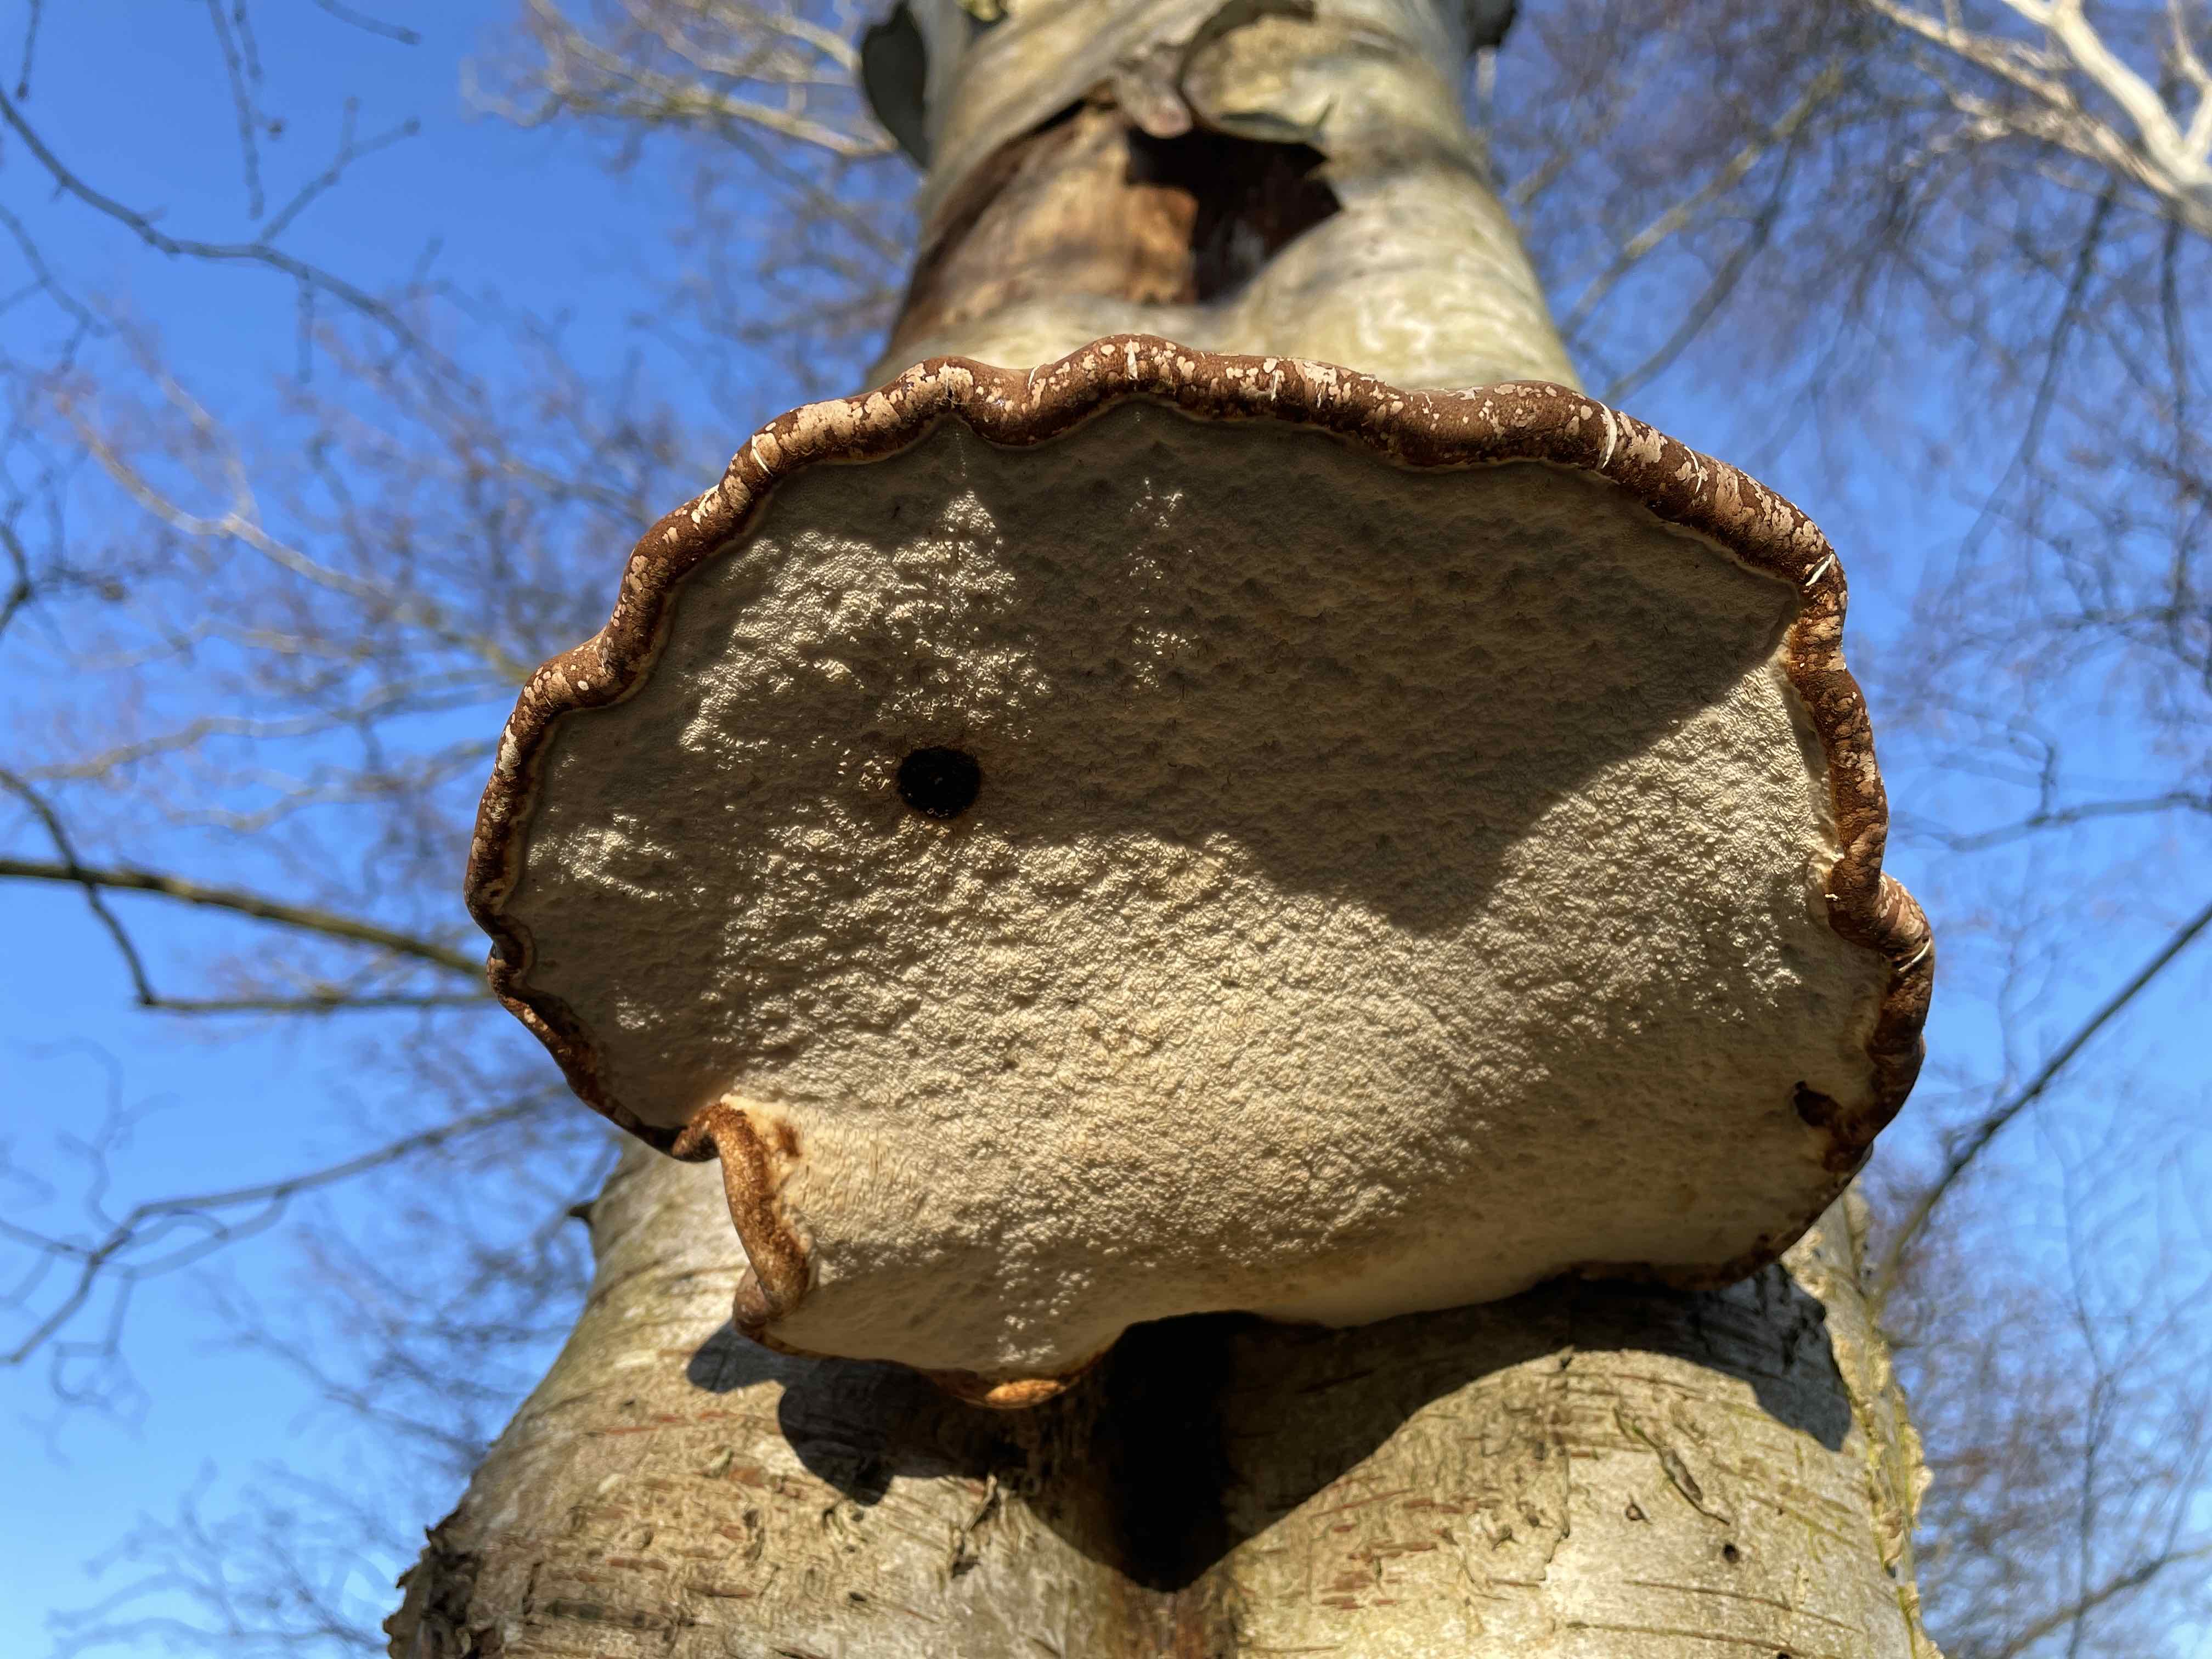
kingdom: Fungi
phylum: Basidiomycota
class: Agaricomycetes
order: Polyporales
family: Fomitopsidaceae
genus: Fomitopsis
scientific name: Fomitopsis betulina
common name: birkeporesvamp
